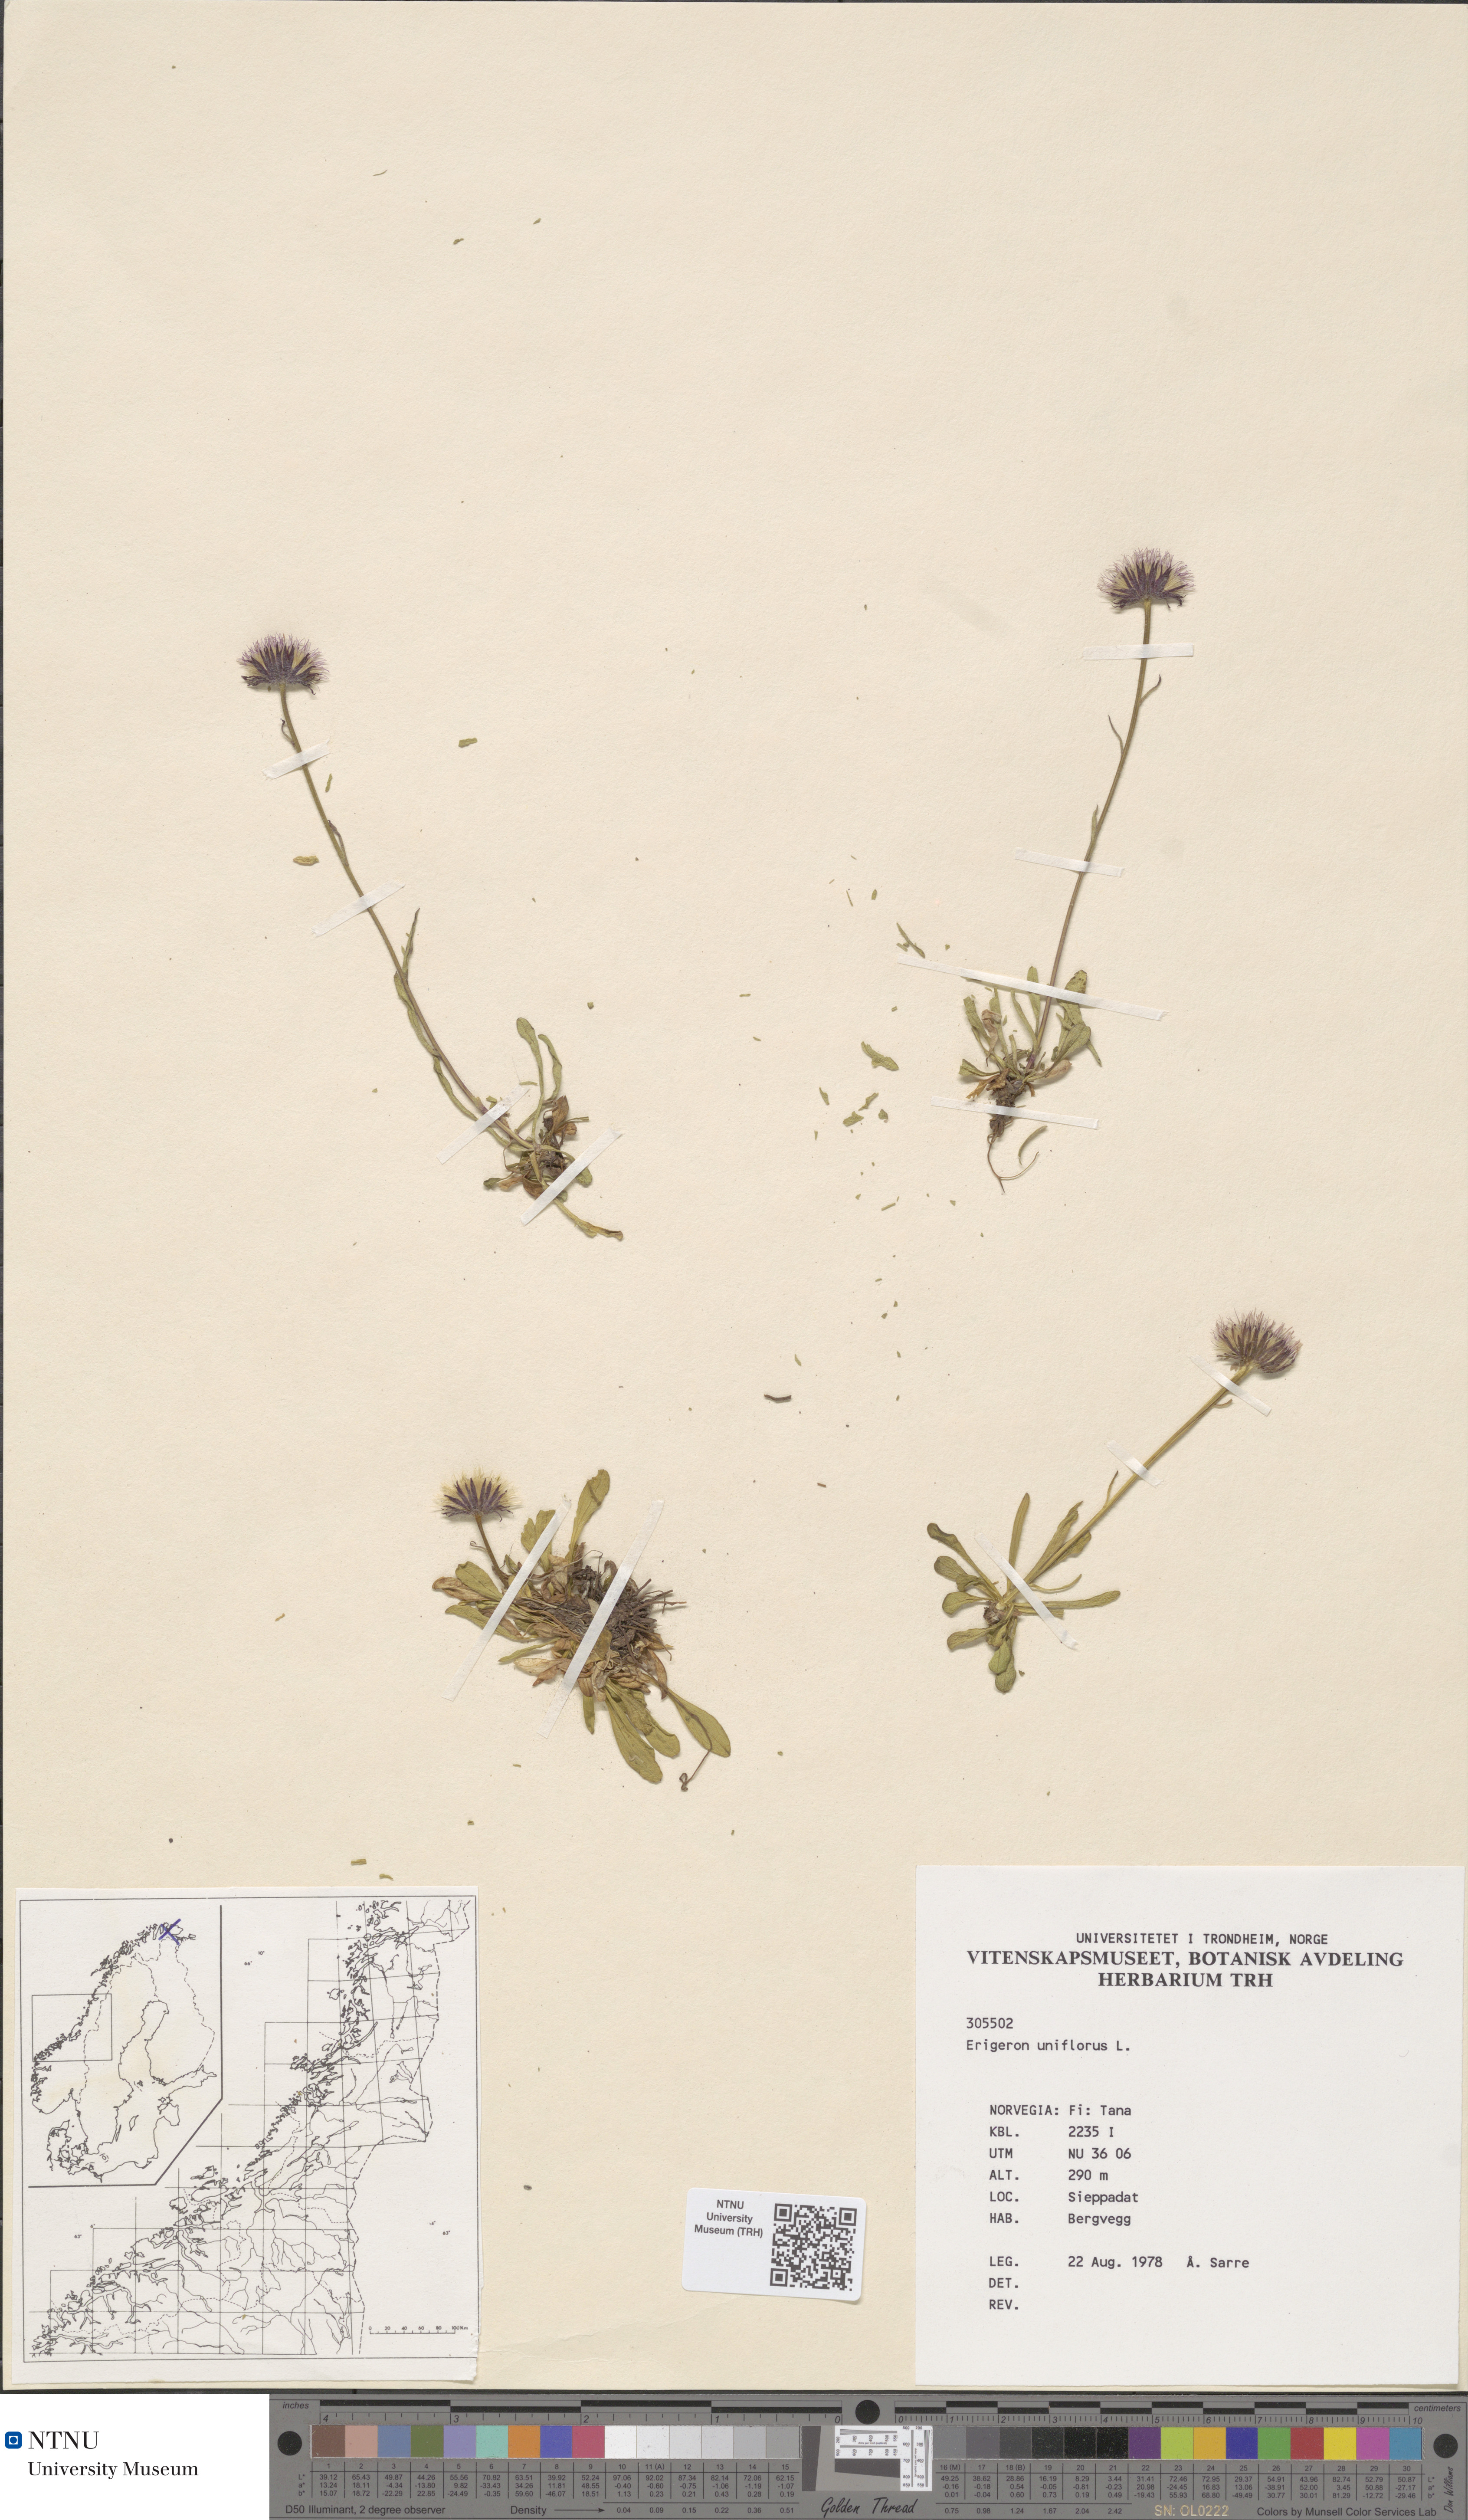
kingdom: Plantae
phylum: Tracheophyta
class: Magnoliopsida
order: Asterales
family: Asteraceae
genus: Erigeron
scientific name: Erigeron uniflorus
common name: Northern daisy
